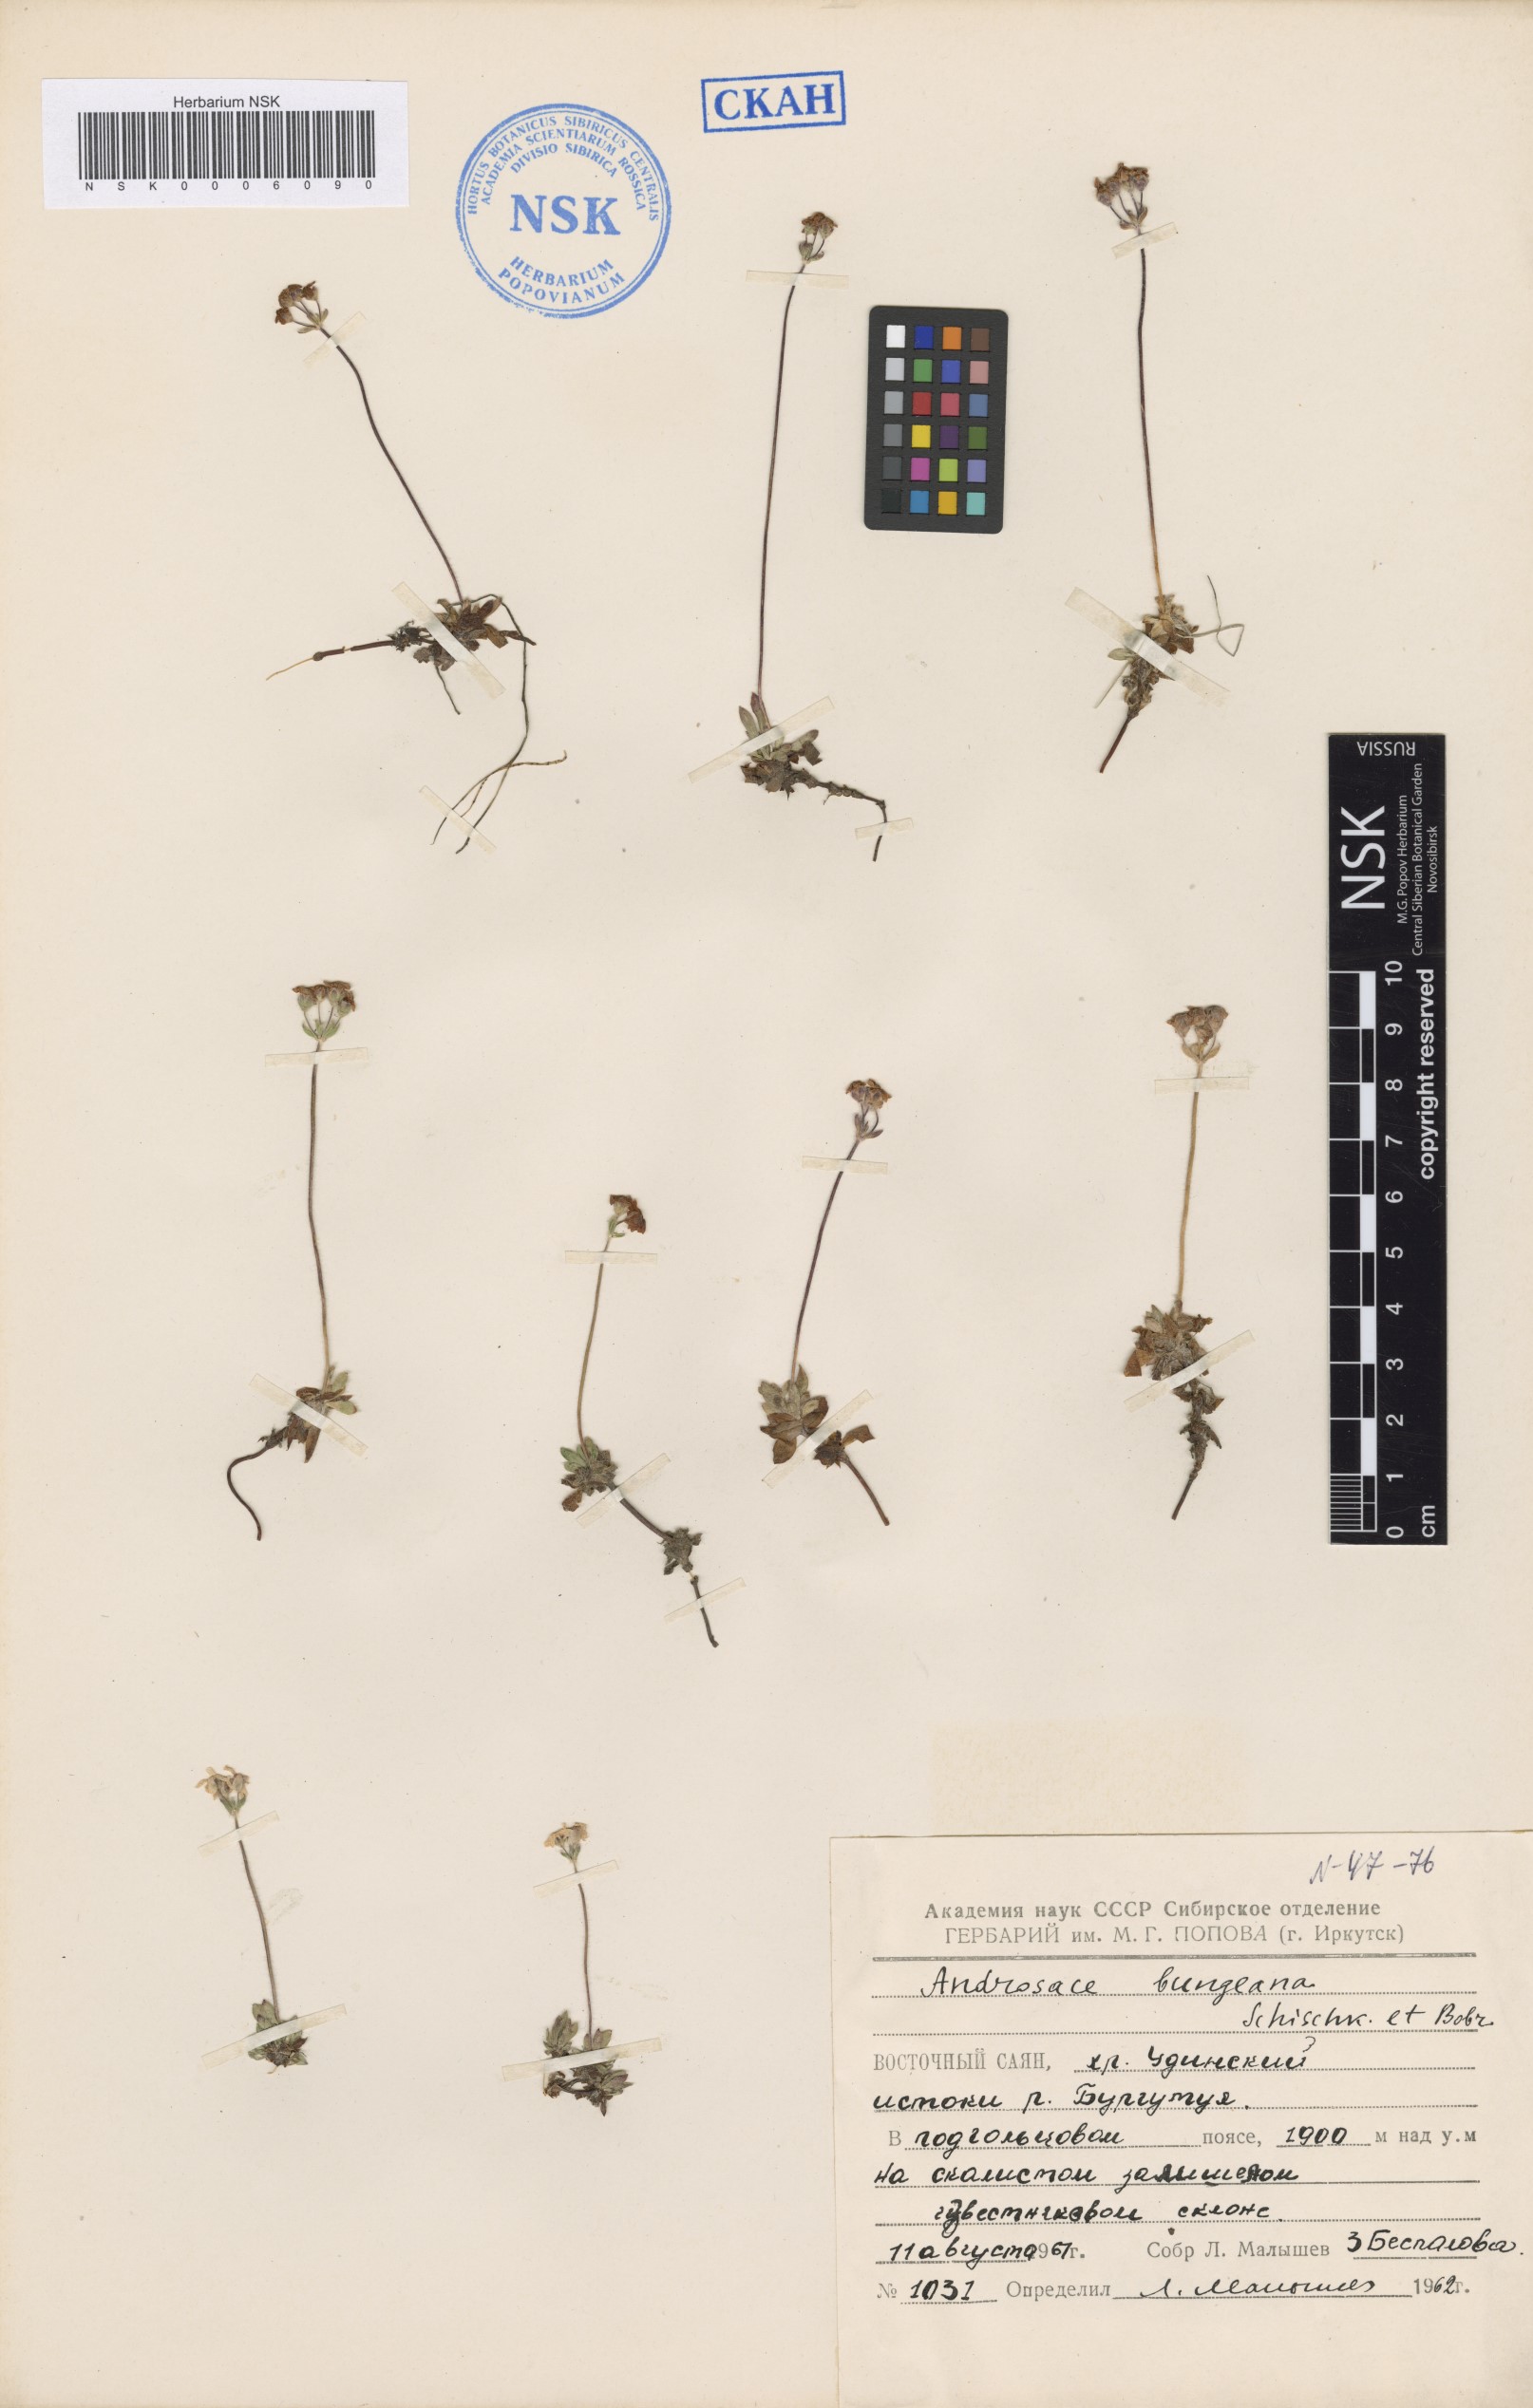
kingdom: Plantae
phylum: Tracheophyta
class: Magnoliopsida
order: Ericales
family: Primulaceae
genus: Androsace
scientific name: Androsace bungeana
